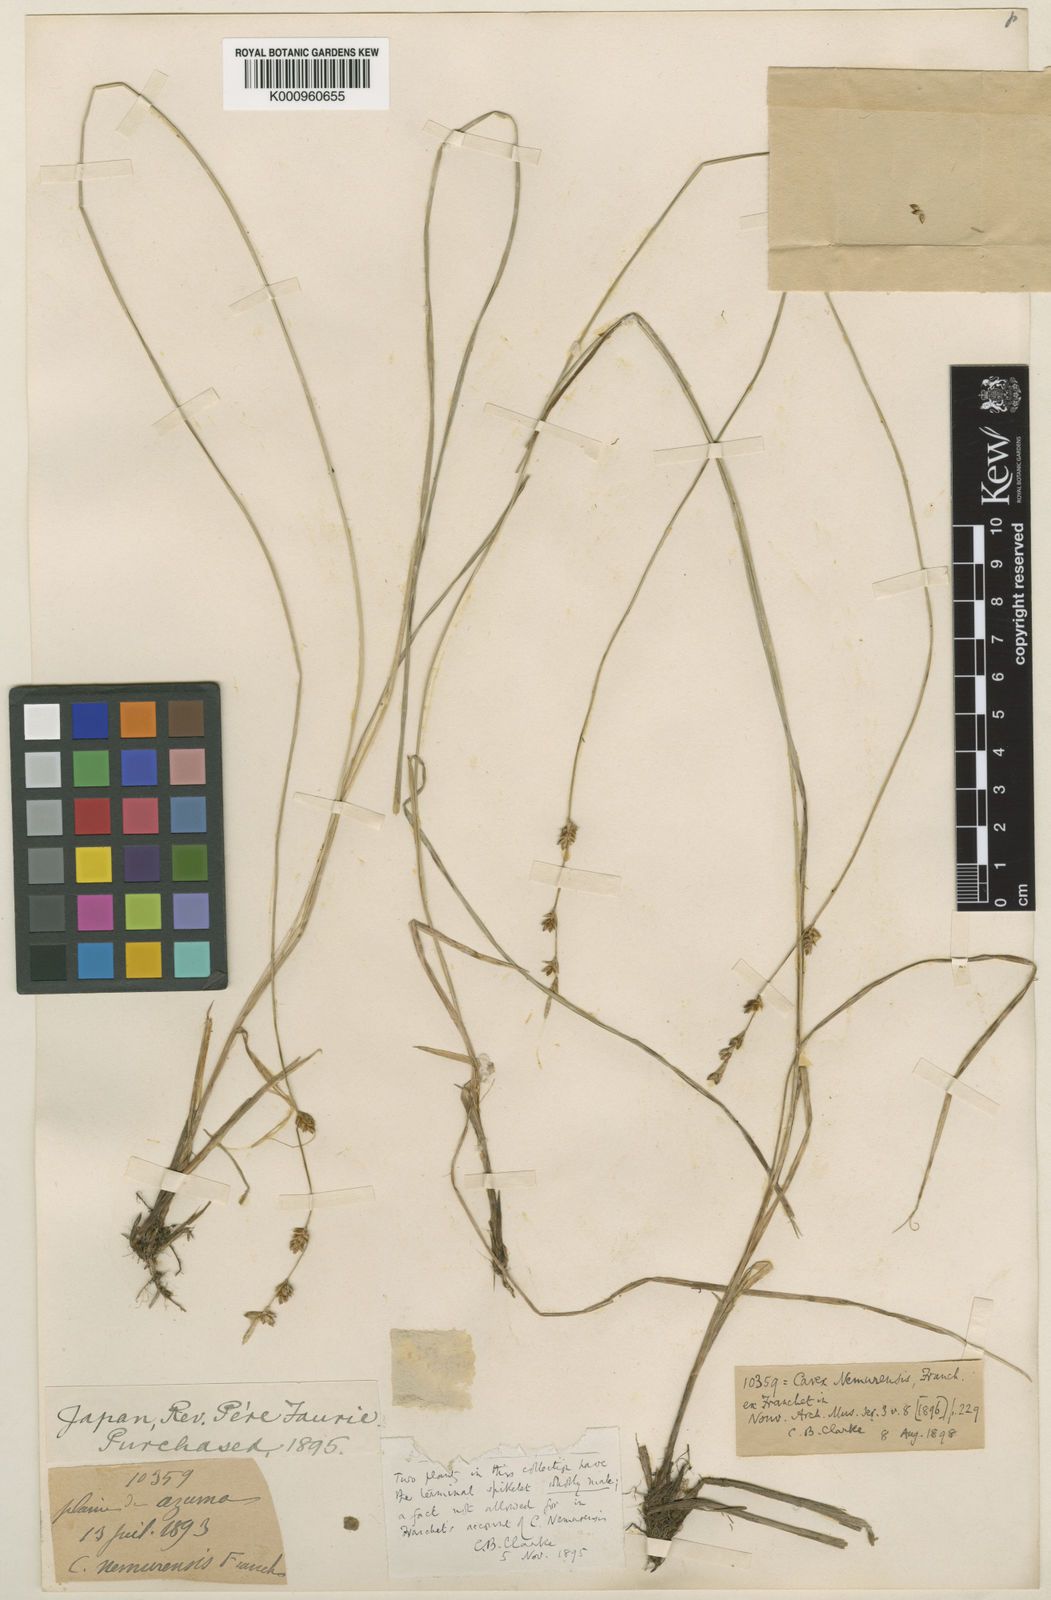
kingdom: Plantae
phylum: Tracheophyta
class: Liliopsida
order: Poales
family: Cyperaceae
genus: Carex
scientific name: Carex traiziscana
